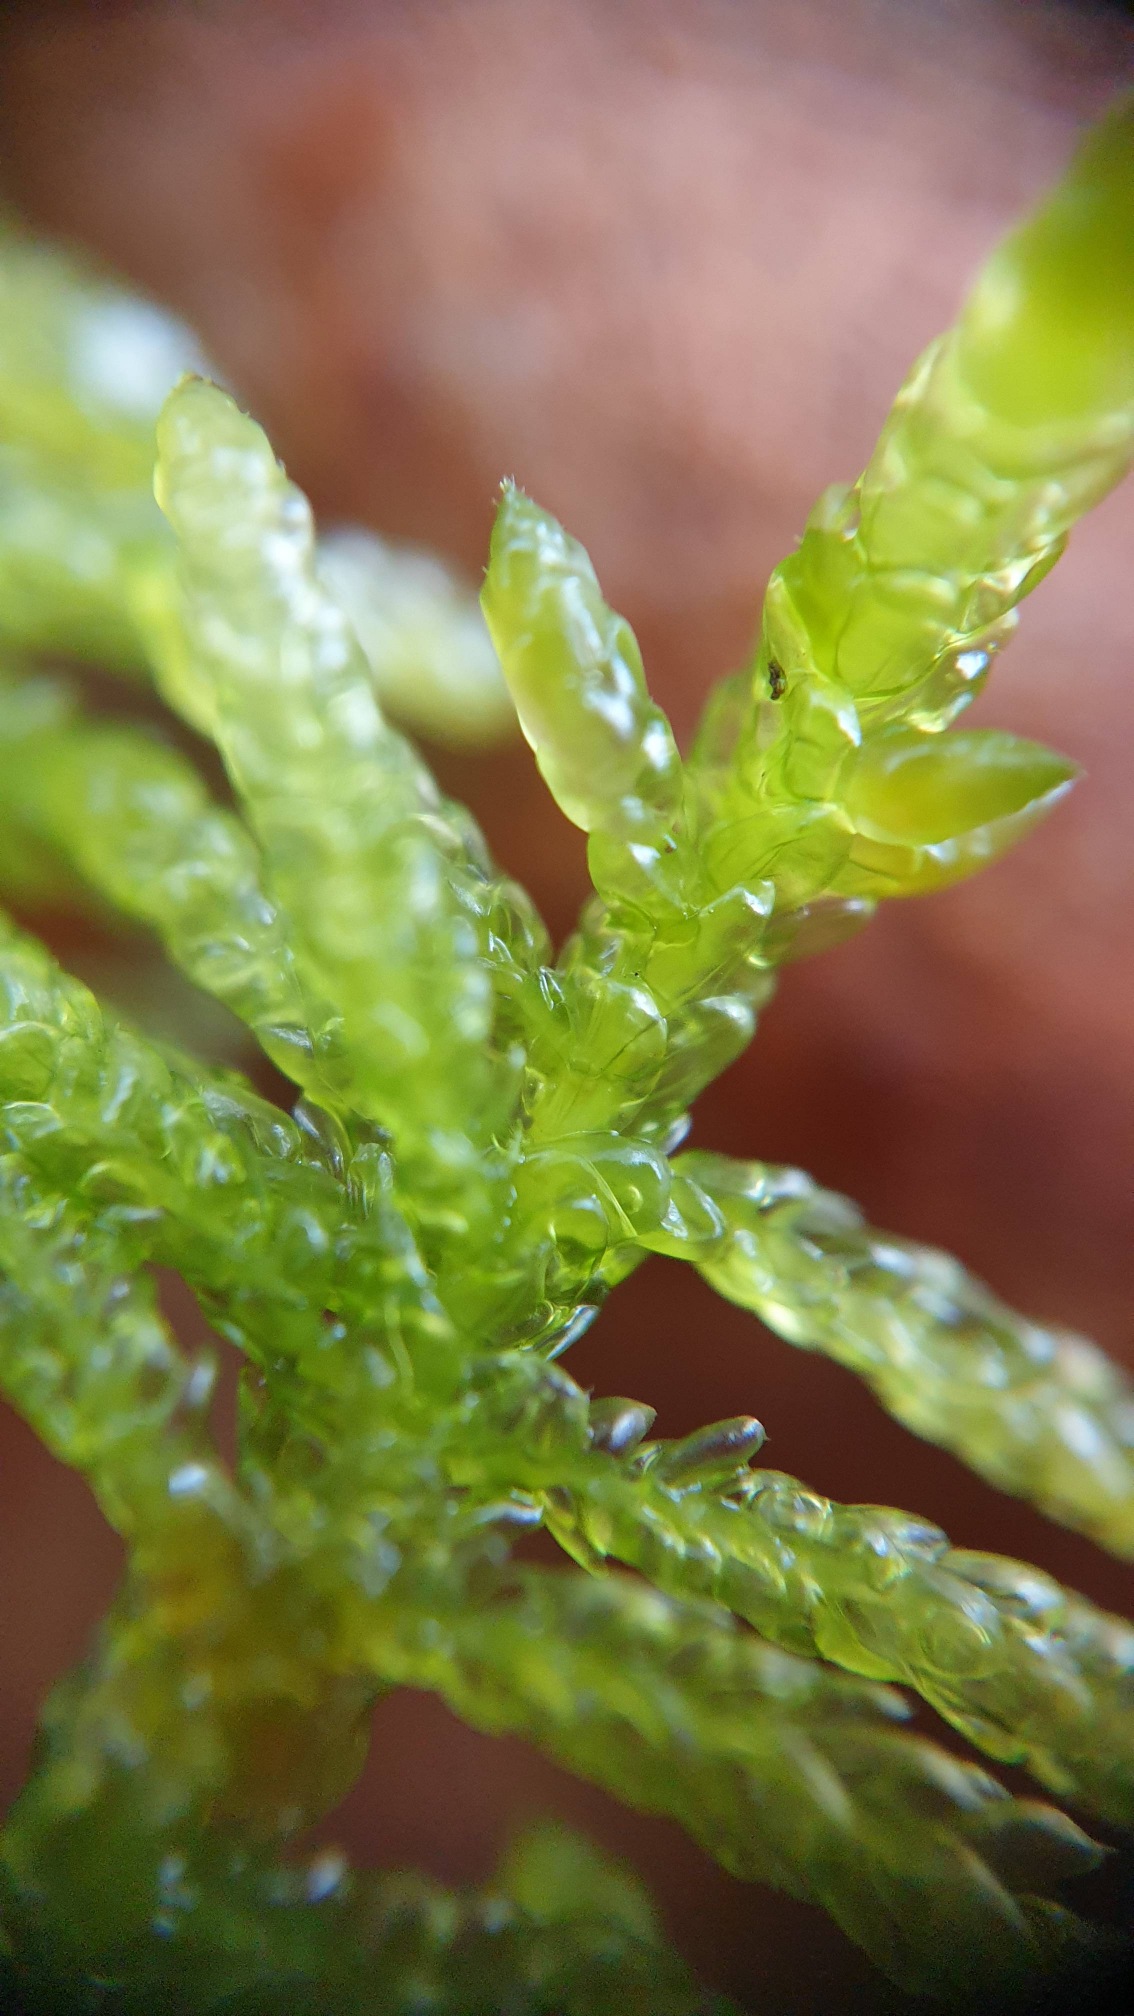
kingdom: Plantae
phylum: Bryophyta
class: Bryopsida
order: Hypnales
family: Brachytheciaceae
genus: Pseudoscleropodium
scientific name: Pseudoscleropodium purum
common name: Hulbladet fedtmos
